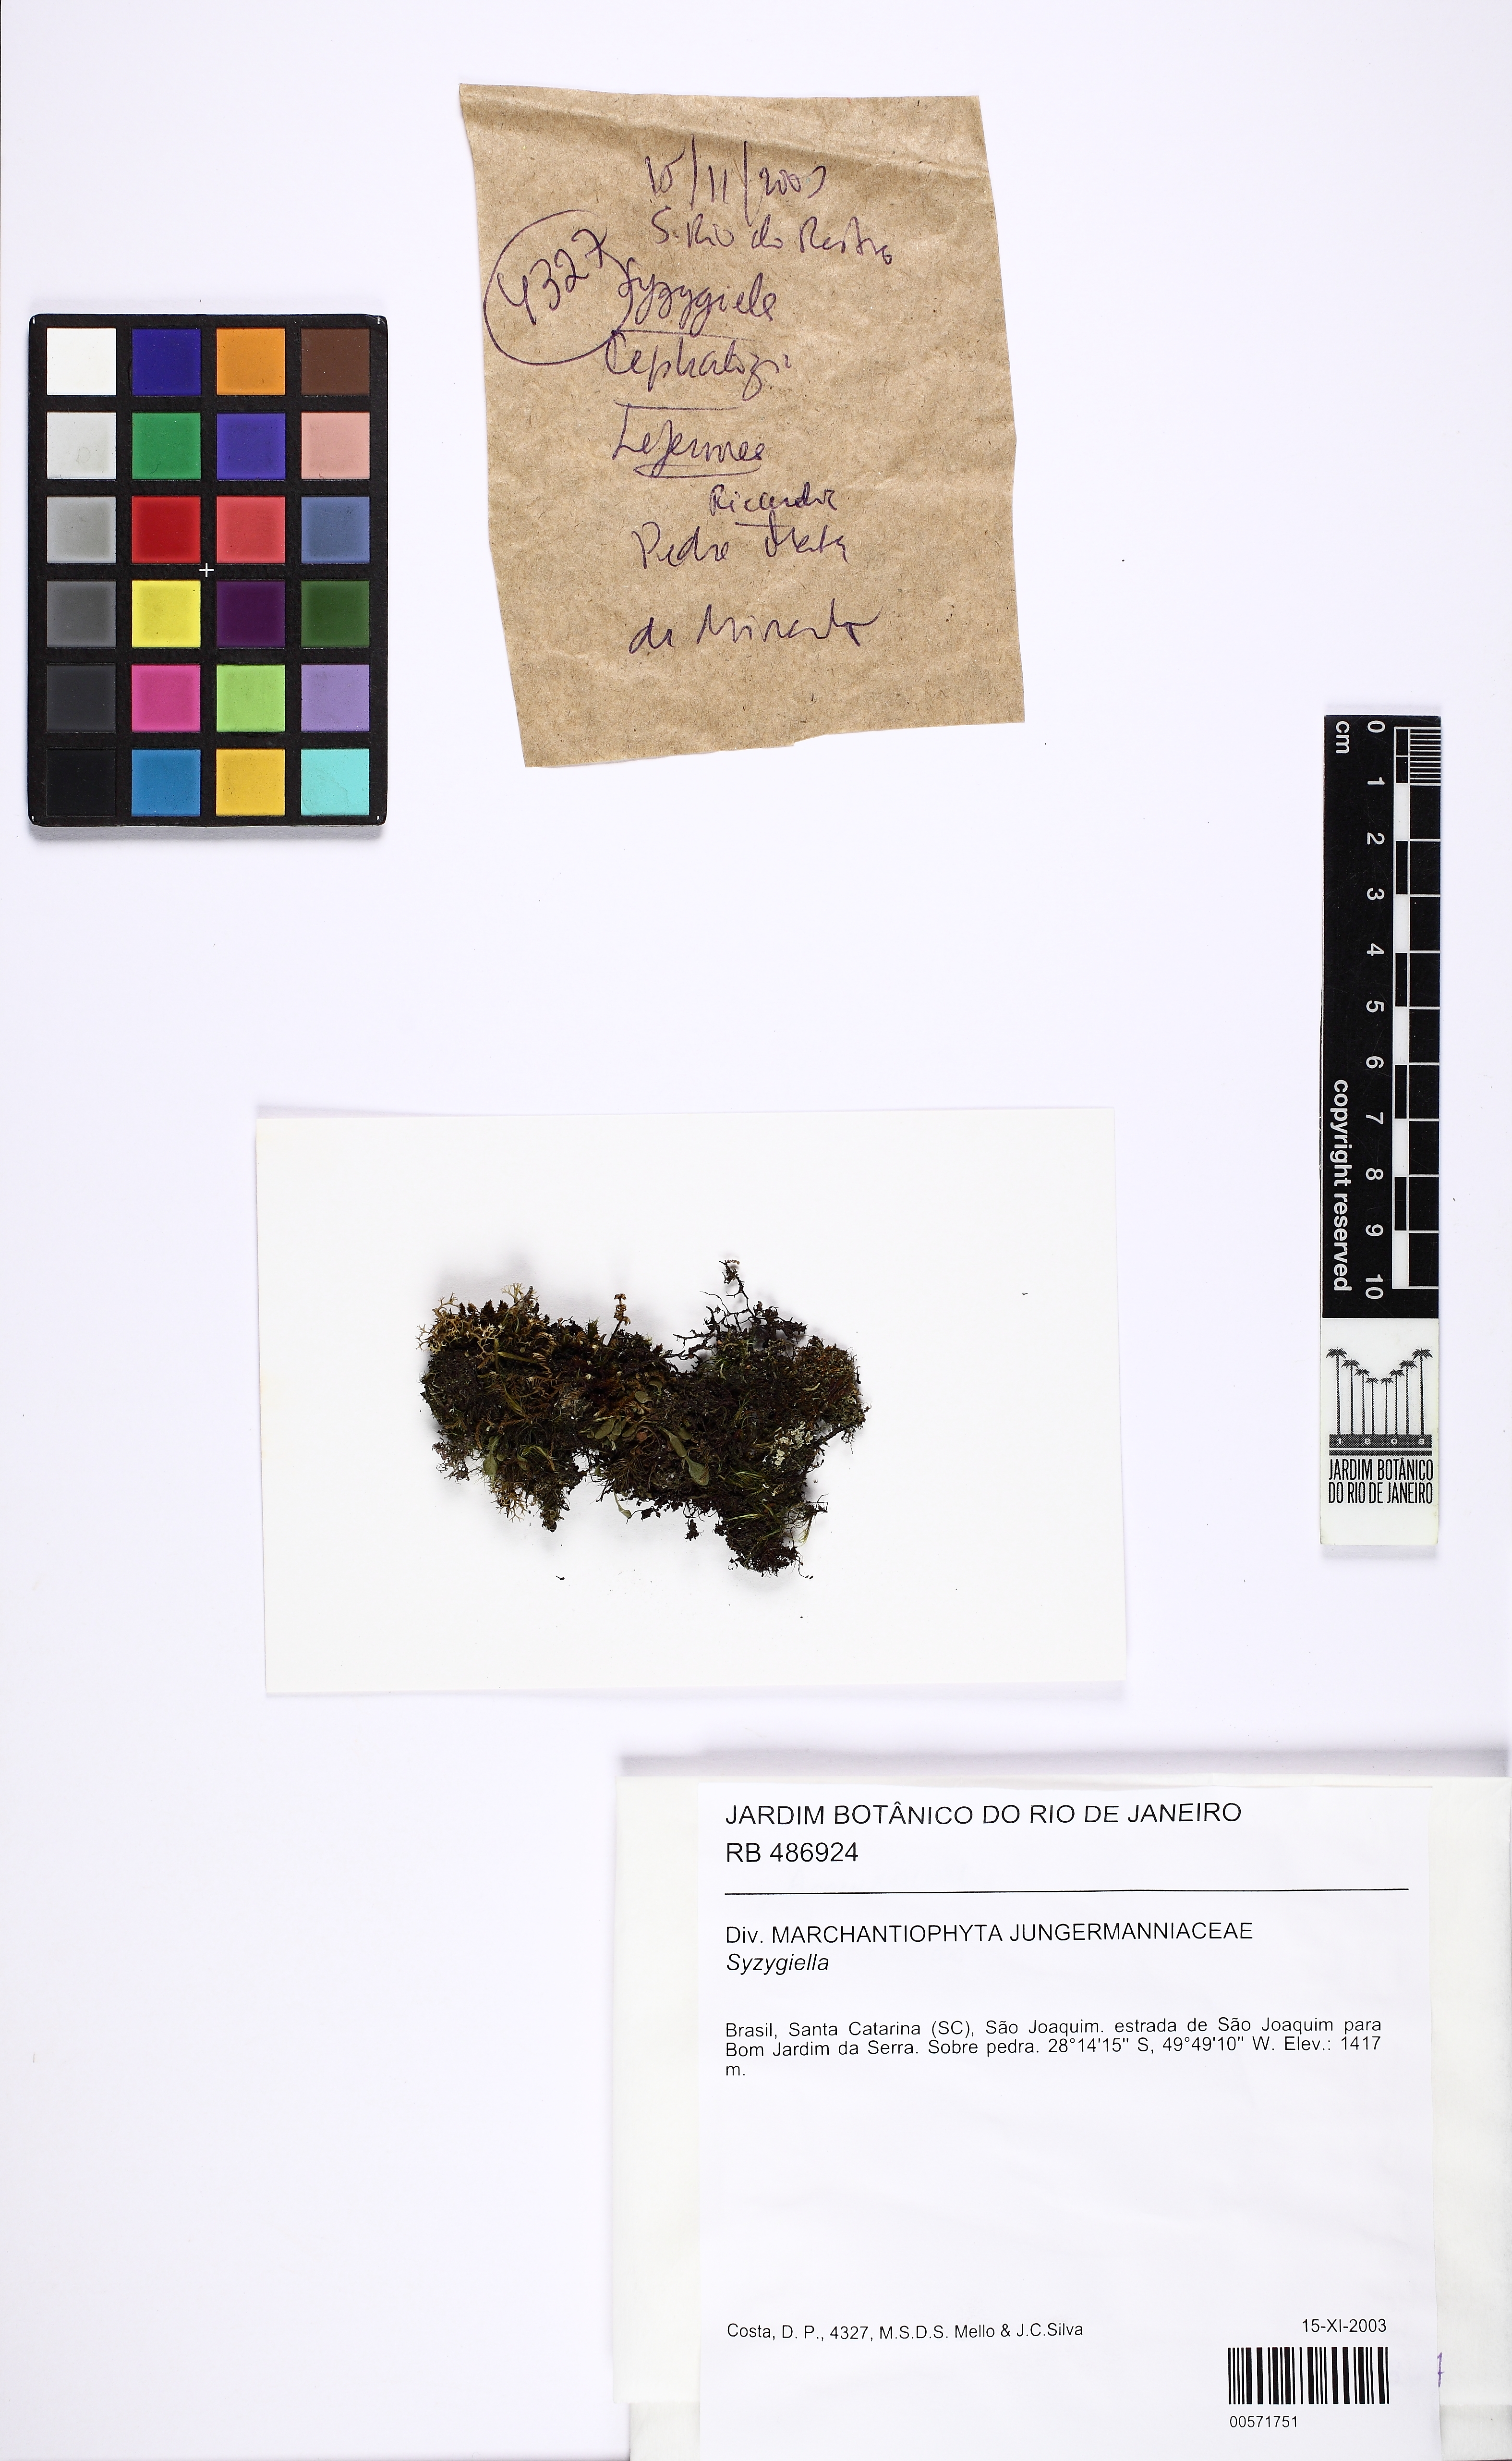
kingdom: Plantae
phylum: Marchantiophyta
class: Jungermanniopsida
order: Jungermanniales
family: Adelanthaceae
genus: Syzygiella
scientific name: Syzygiella
